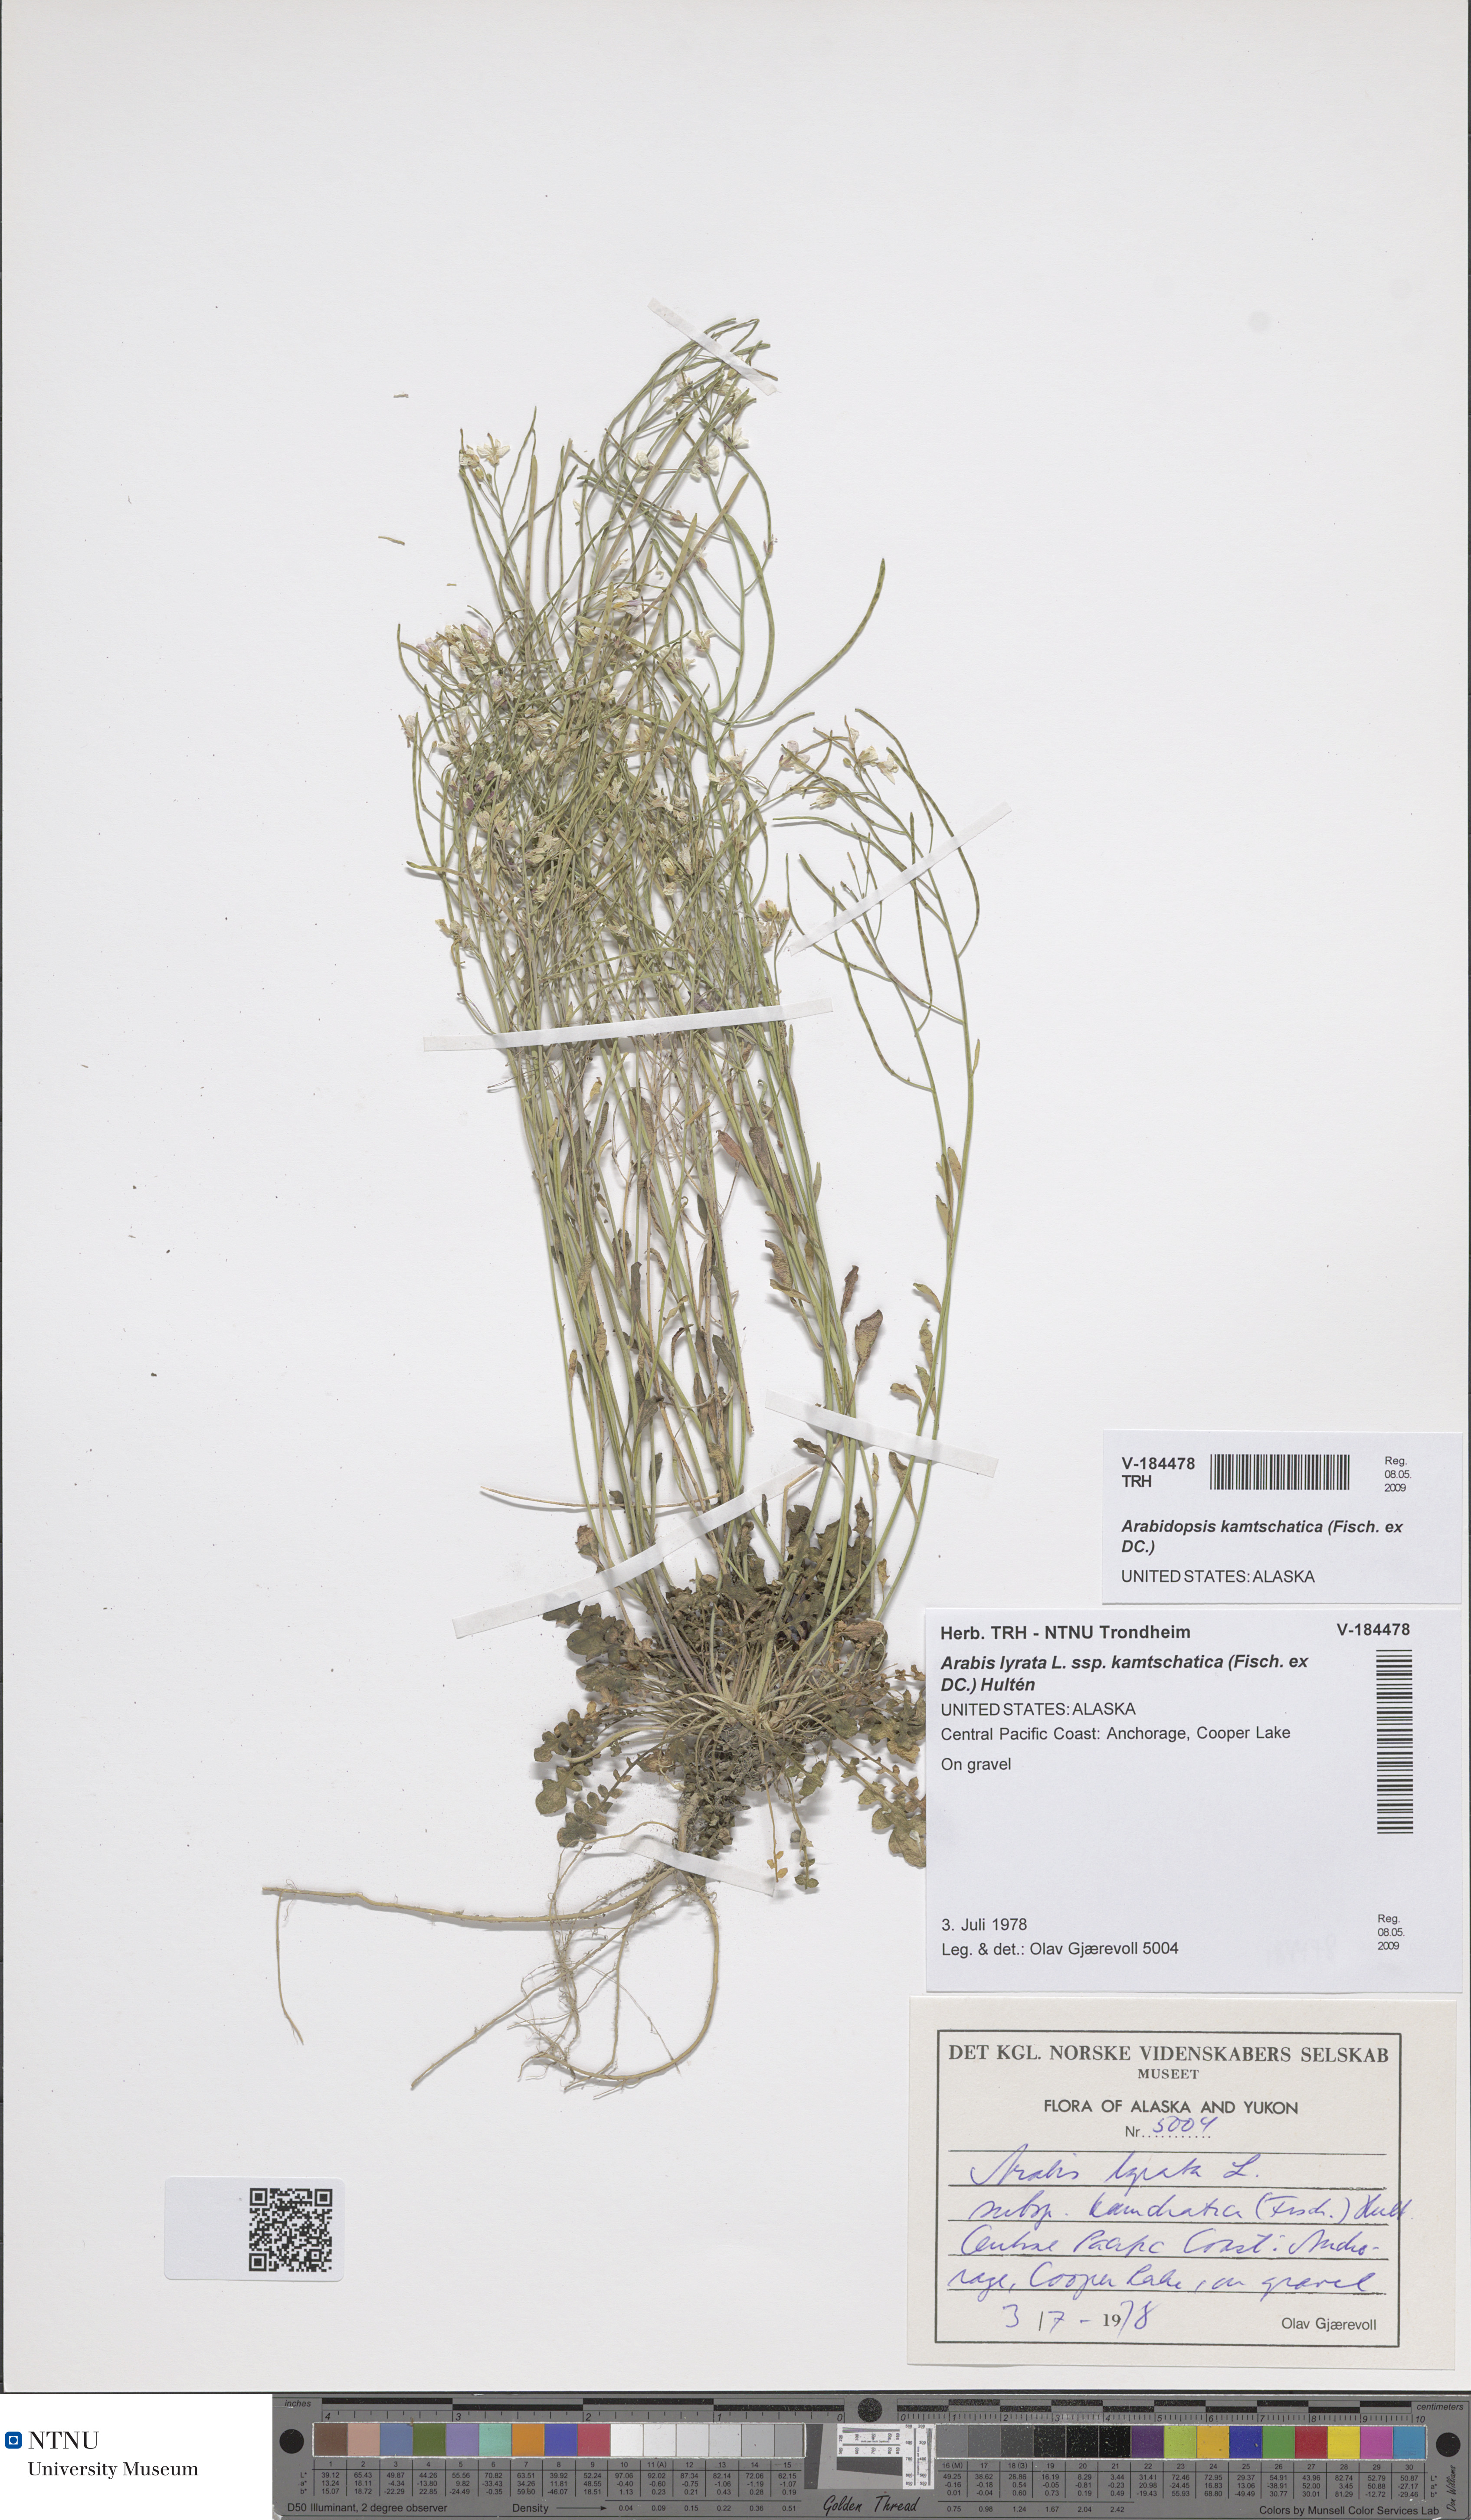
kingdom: Plantae
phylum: Tracheophyta
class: Magnoliopsida
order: Brassicales
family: Brassicaceae
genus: Arabidopsis
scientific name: Arabidopsis lyrata
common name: Lyrate rockcress
